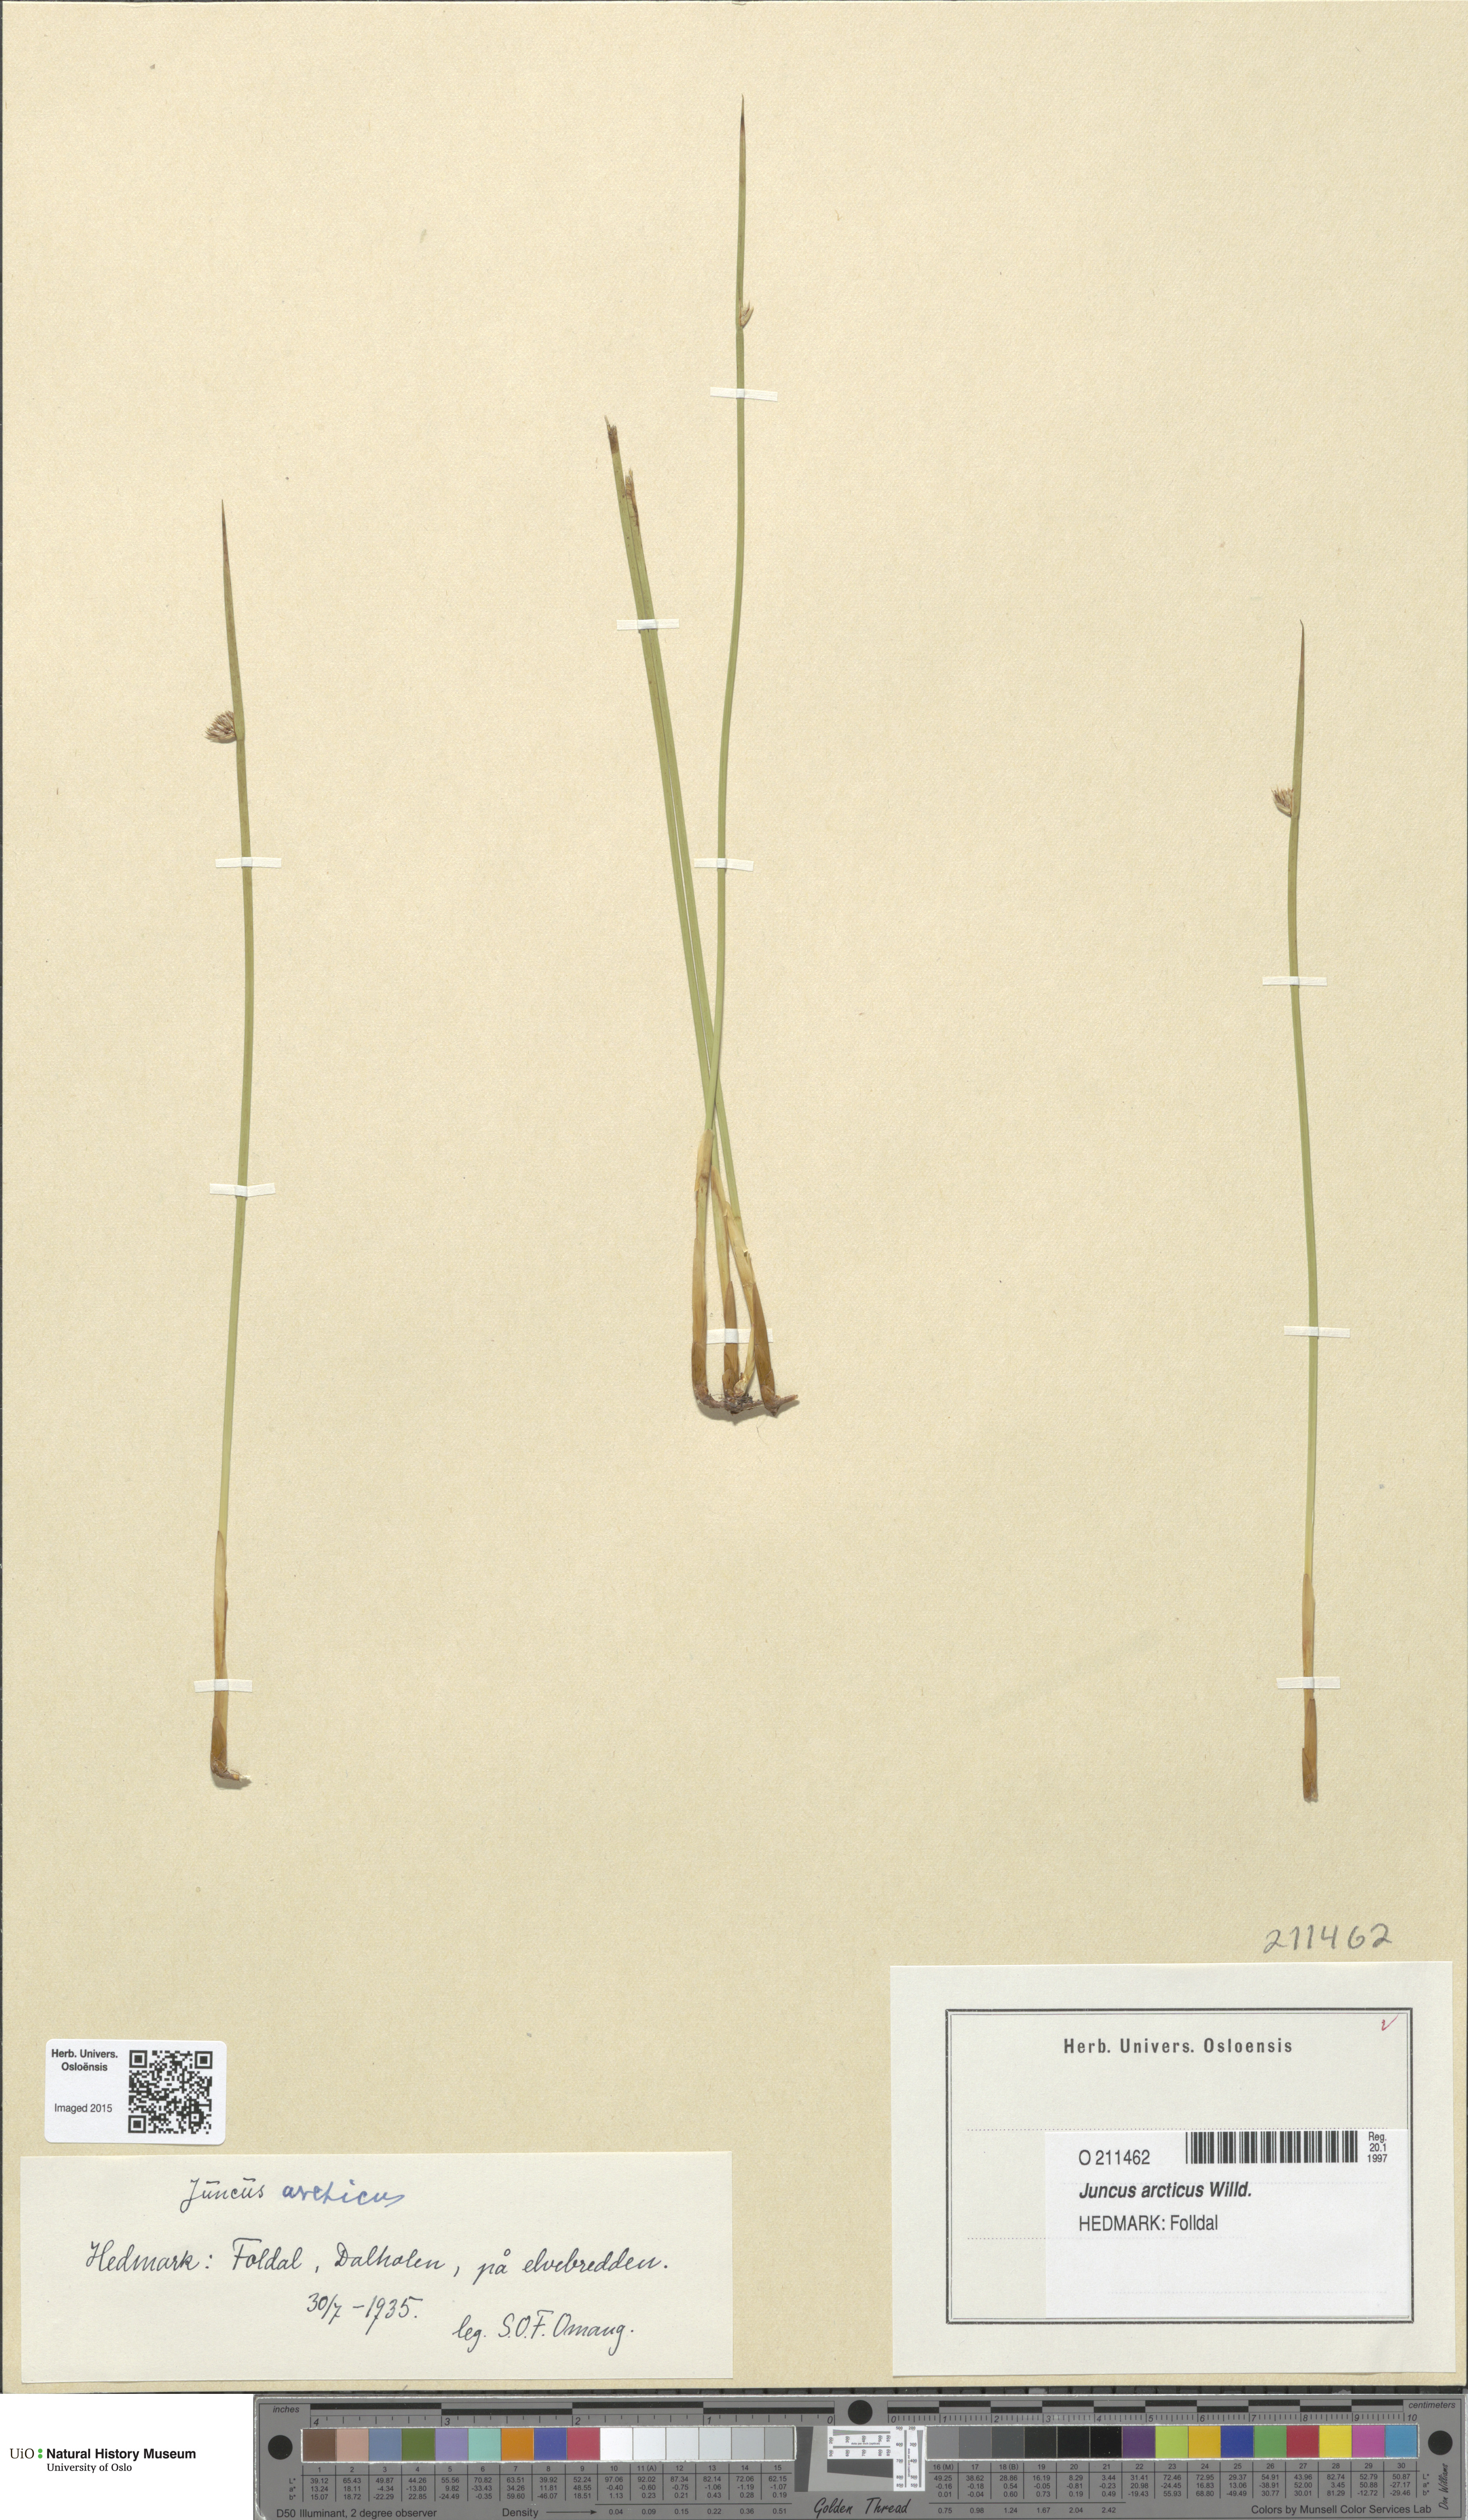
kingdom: Plantae
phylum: Tracheophyta
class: Liliopsida
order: Poales
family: Juncaceae
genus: Juncus
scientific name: Juncus arcticus
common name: Arctic rush
